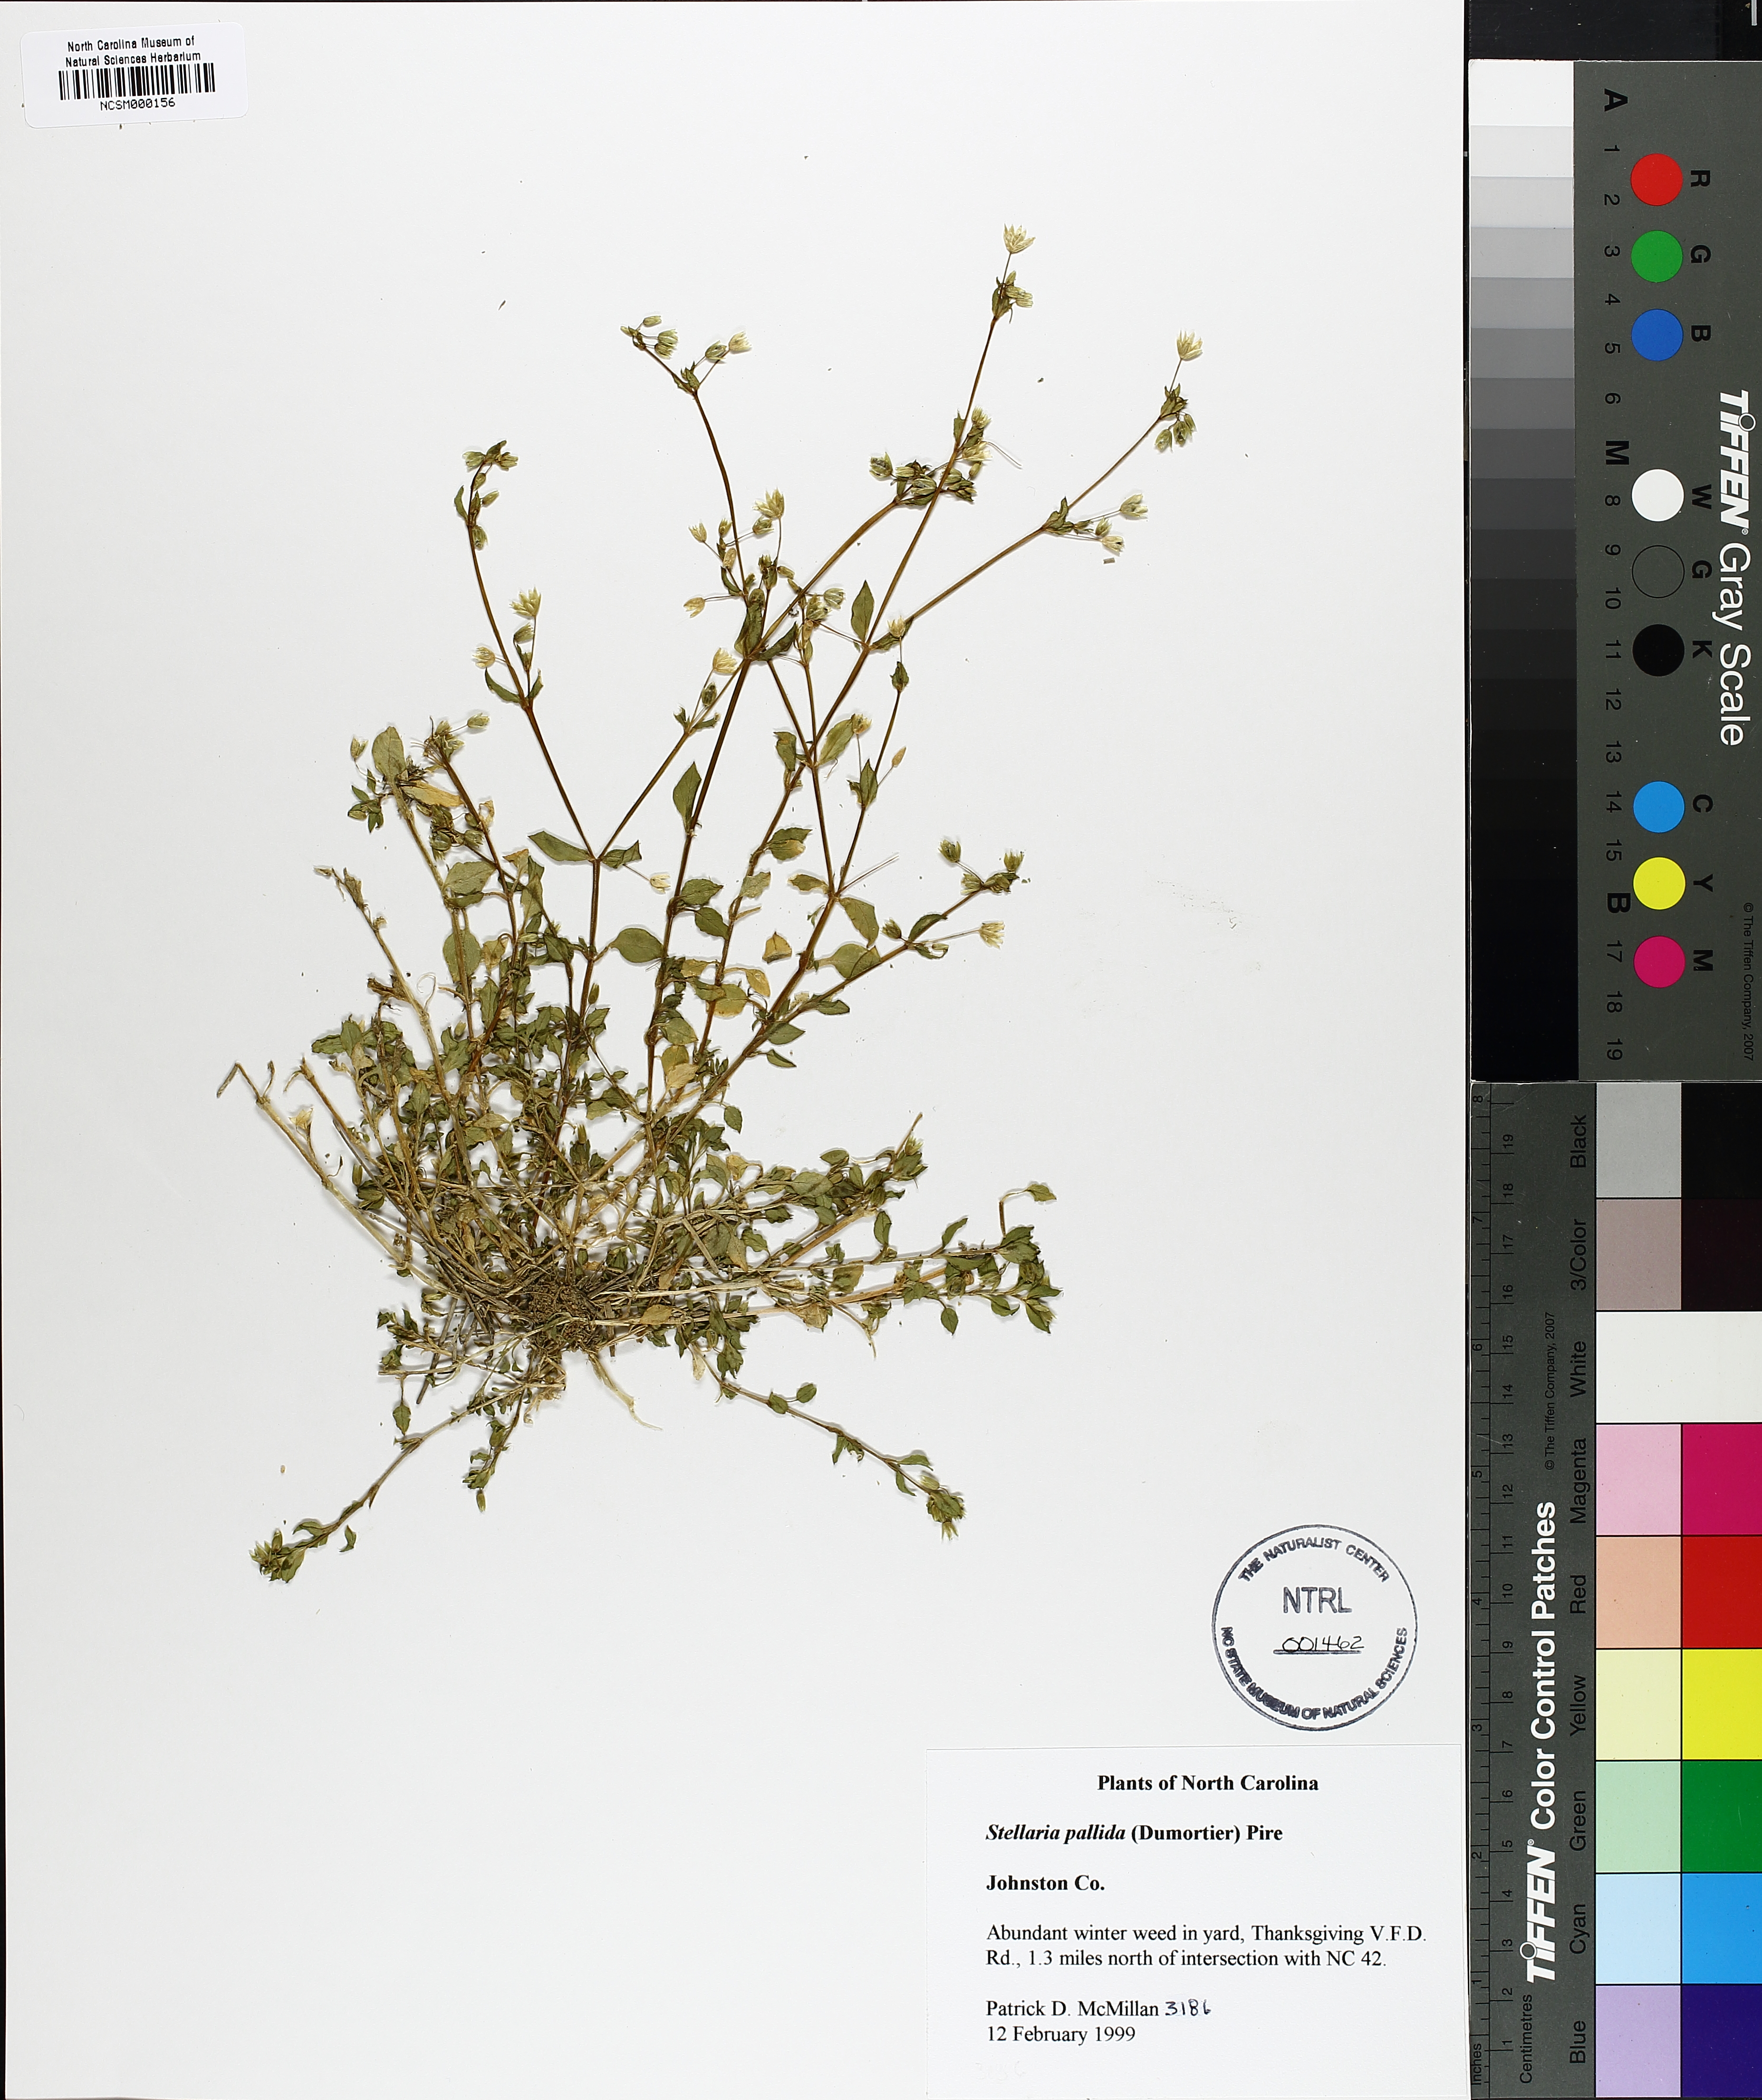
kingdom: Plantae
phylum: Tracheophyta
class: Magnoliopsida
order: Caryophyllales
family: Caryophyllaceae
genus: Stellaria
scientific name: Stellaria apetala
